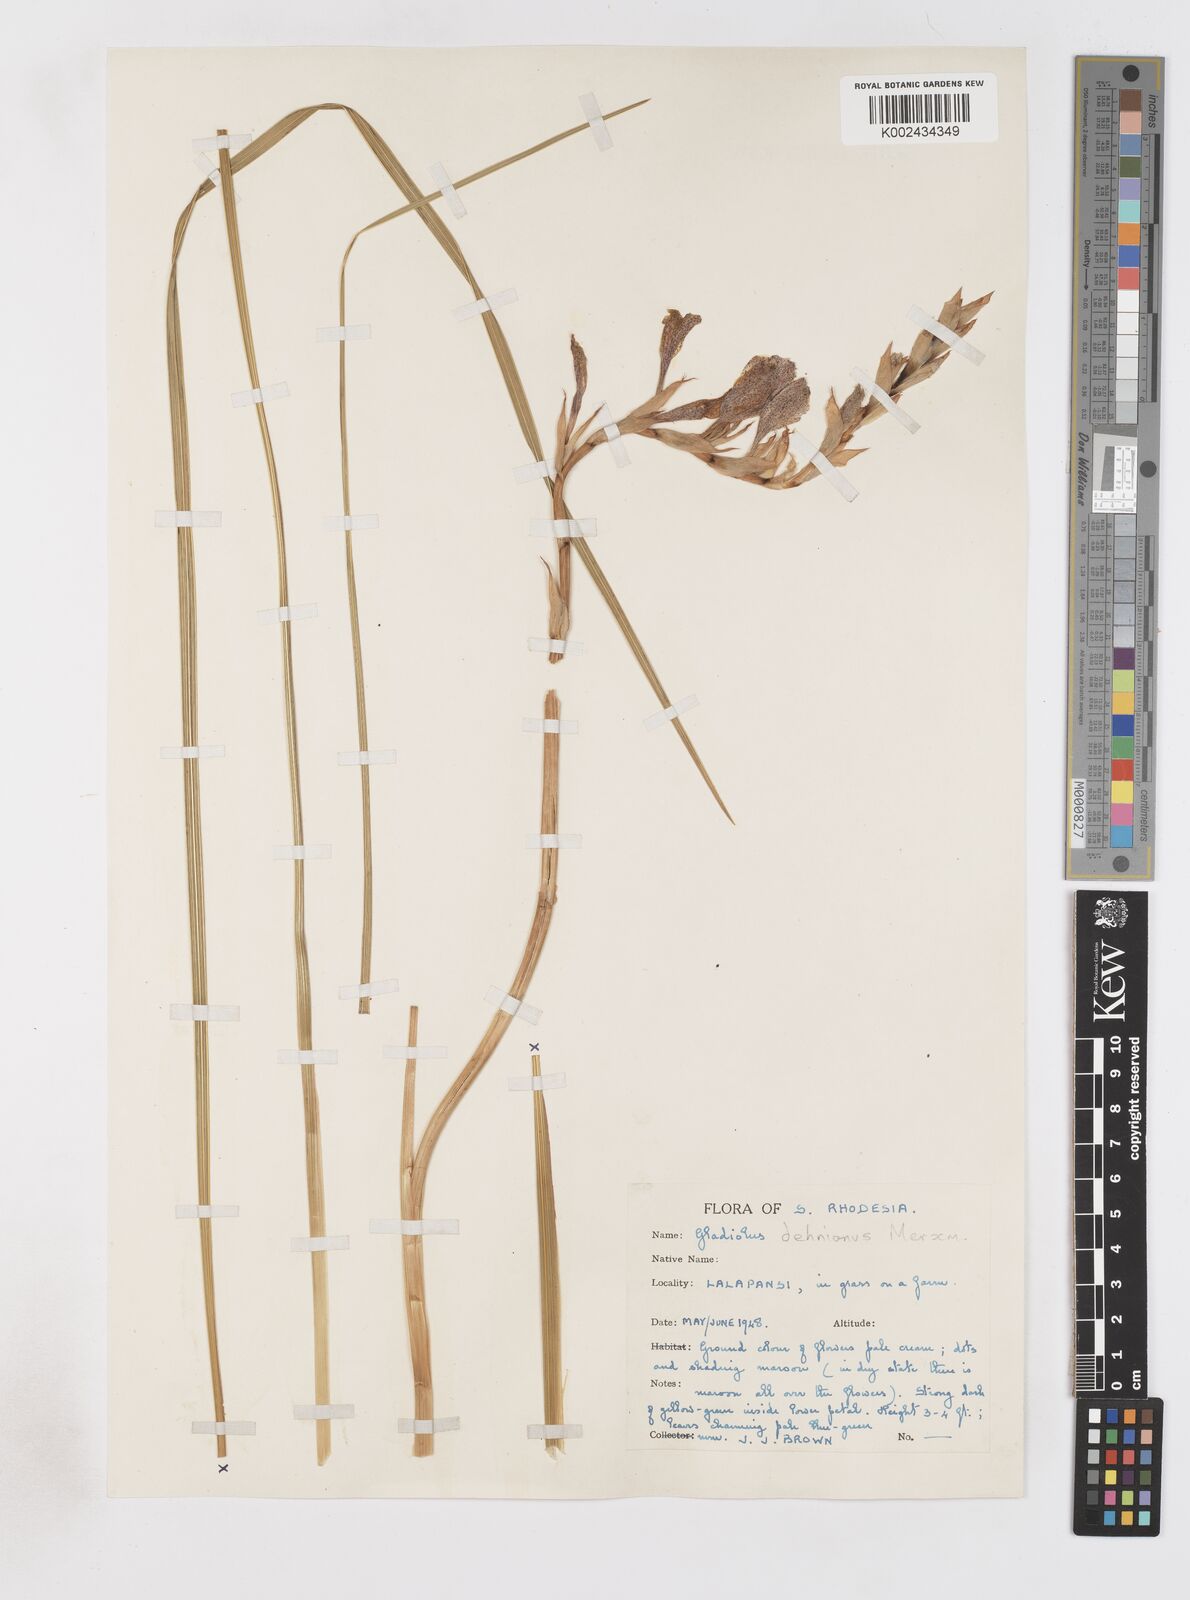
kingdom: Plantae
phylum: Tracheophyta
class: Liliopsida
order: Asparagales
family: Iridaceae
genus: Gladiolus
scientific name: Gladiolus sericeovillosus
